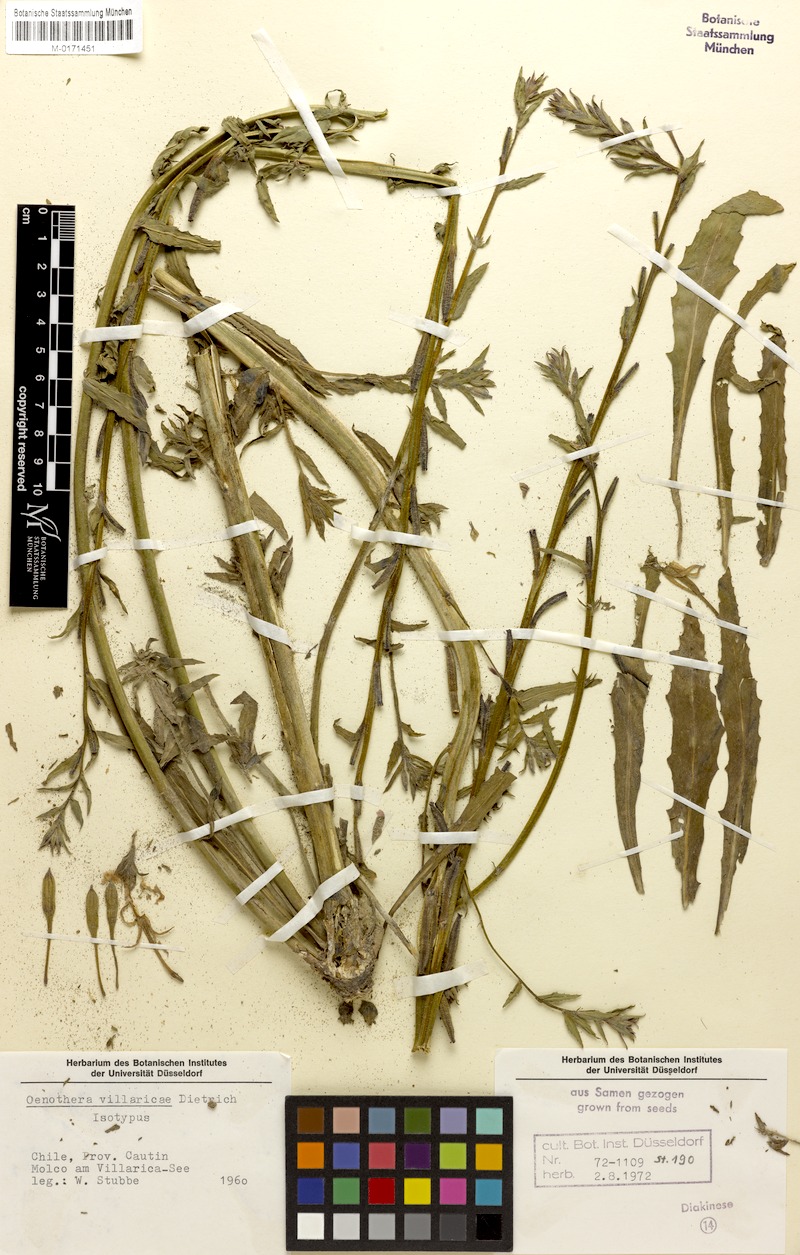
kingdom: Plantae
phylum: Tracheophyta
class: Magnoliopsida
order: Myrtales
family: Onagraceae
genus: Oenothera
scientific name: Oenothera villaricae
